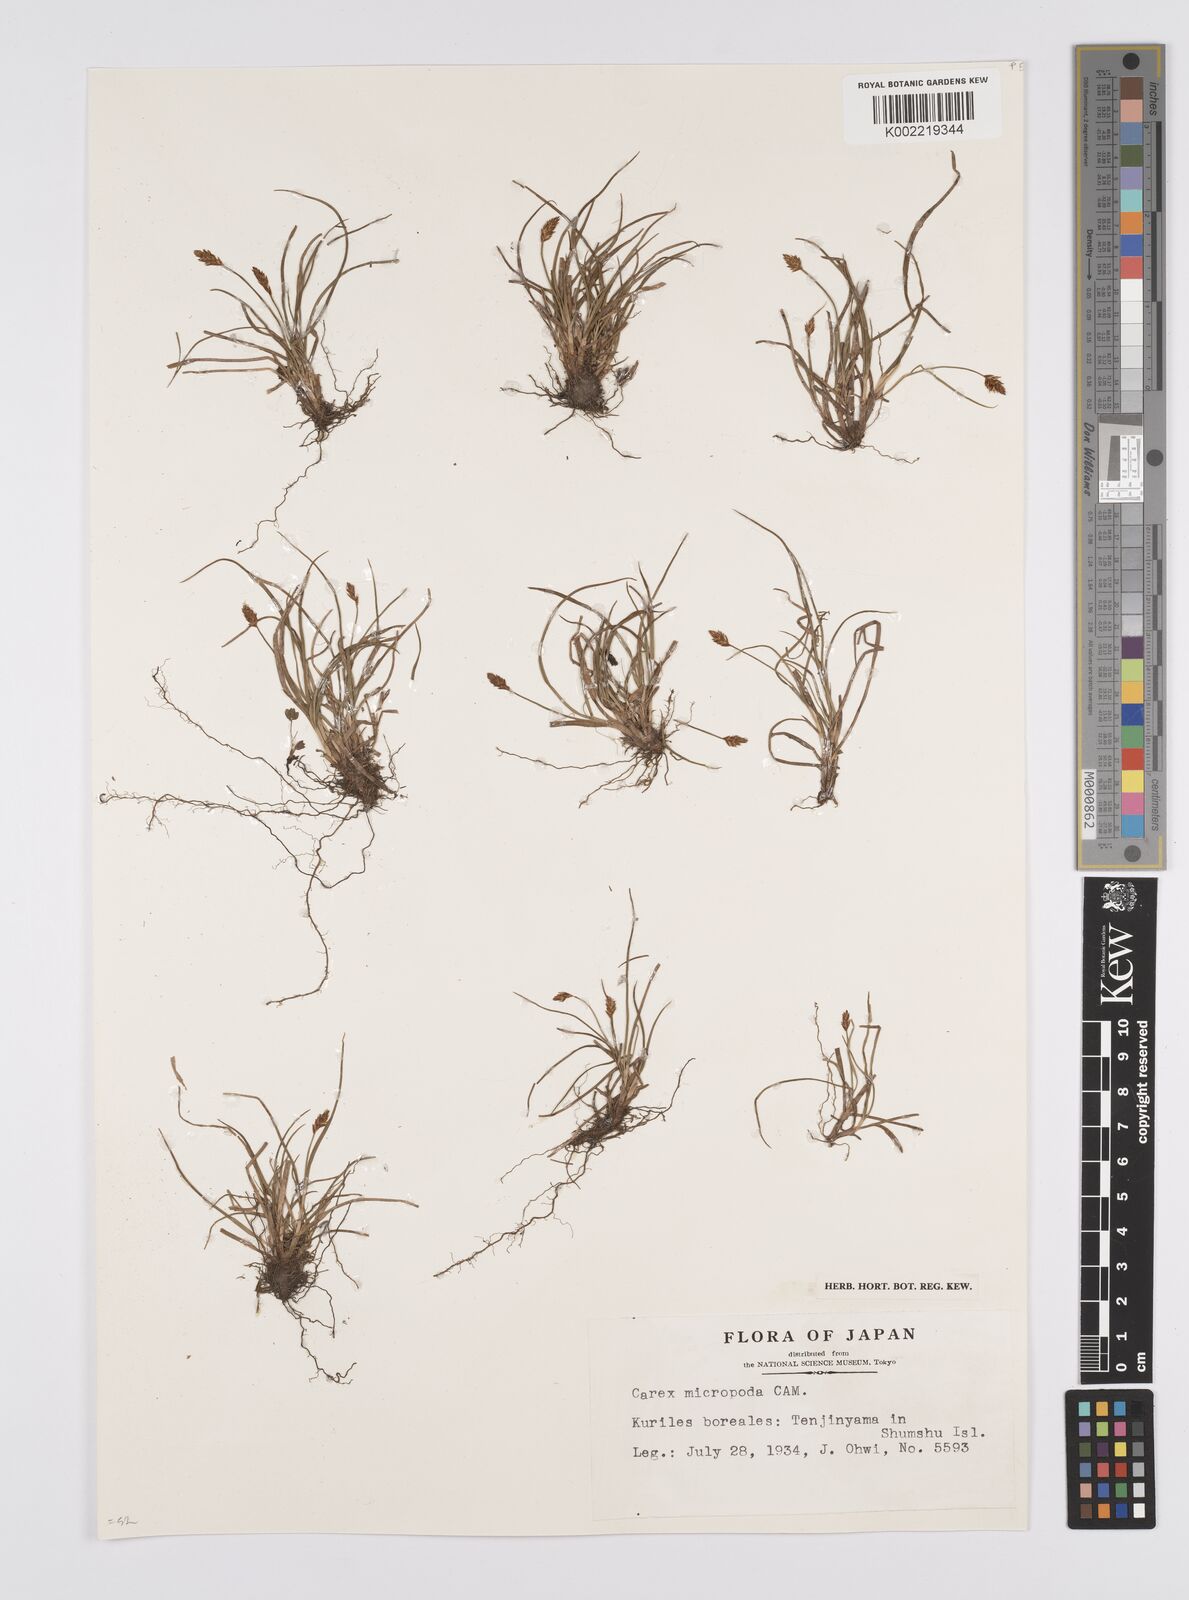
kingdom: Plantae
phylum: Tracheophyta
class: Liliopsida
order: Poales
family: Cyperaceae
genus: Carex
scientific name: Carex pyrenaica
